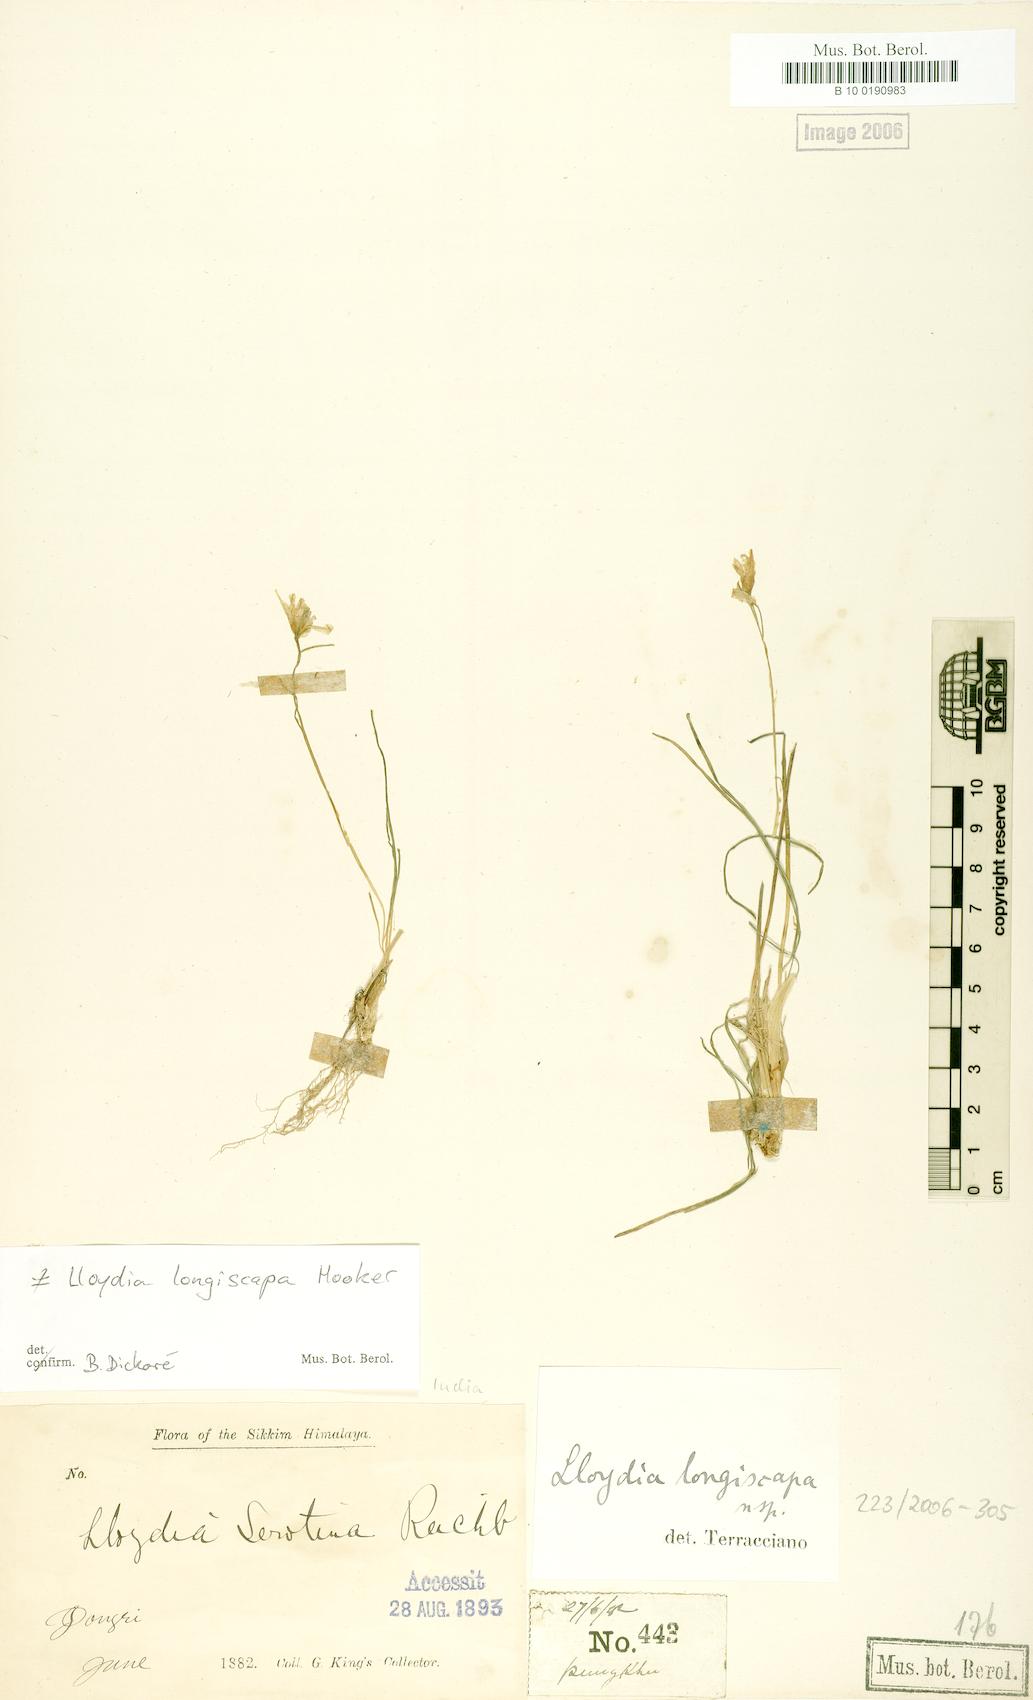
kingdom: Plantae
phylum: Tracheophyta
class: Liliopsida
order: Liliales
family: Liliaceae
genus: Gagea
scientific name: Gagea lasiantha
